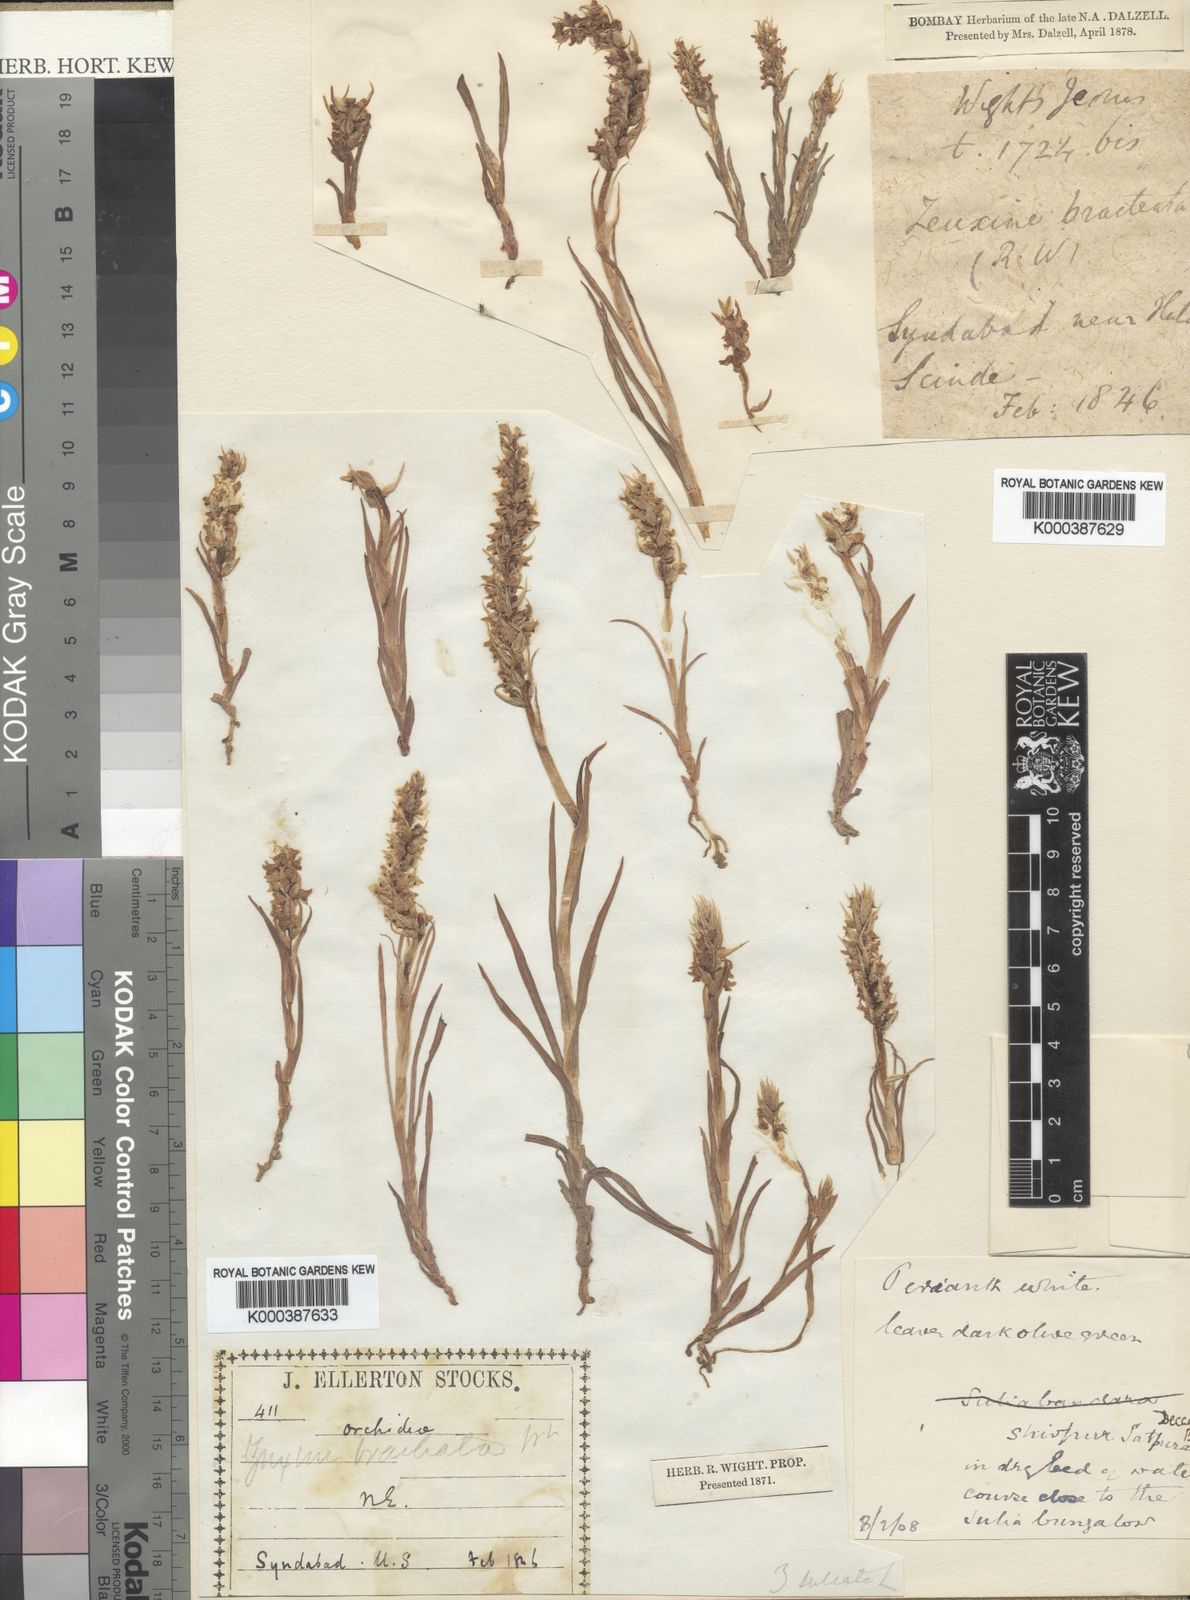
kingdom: Plantae
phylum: Tracheophyta
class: Liliopsida
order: Asparagales
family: Orchidaceae
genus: Zeuxine
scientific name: Zeuxine strateumatica
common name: Soldier's orchid
